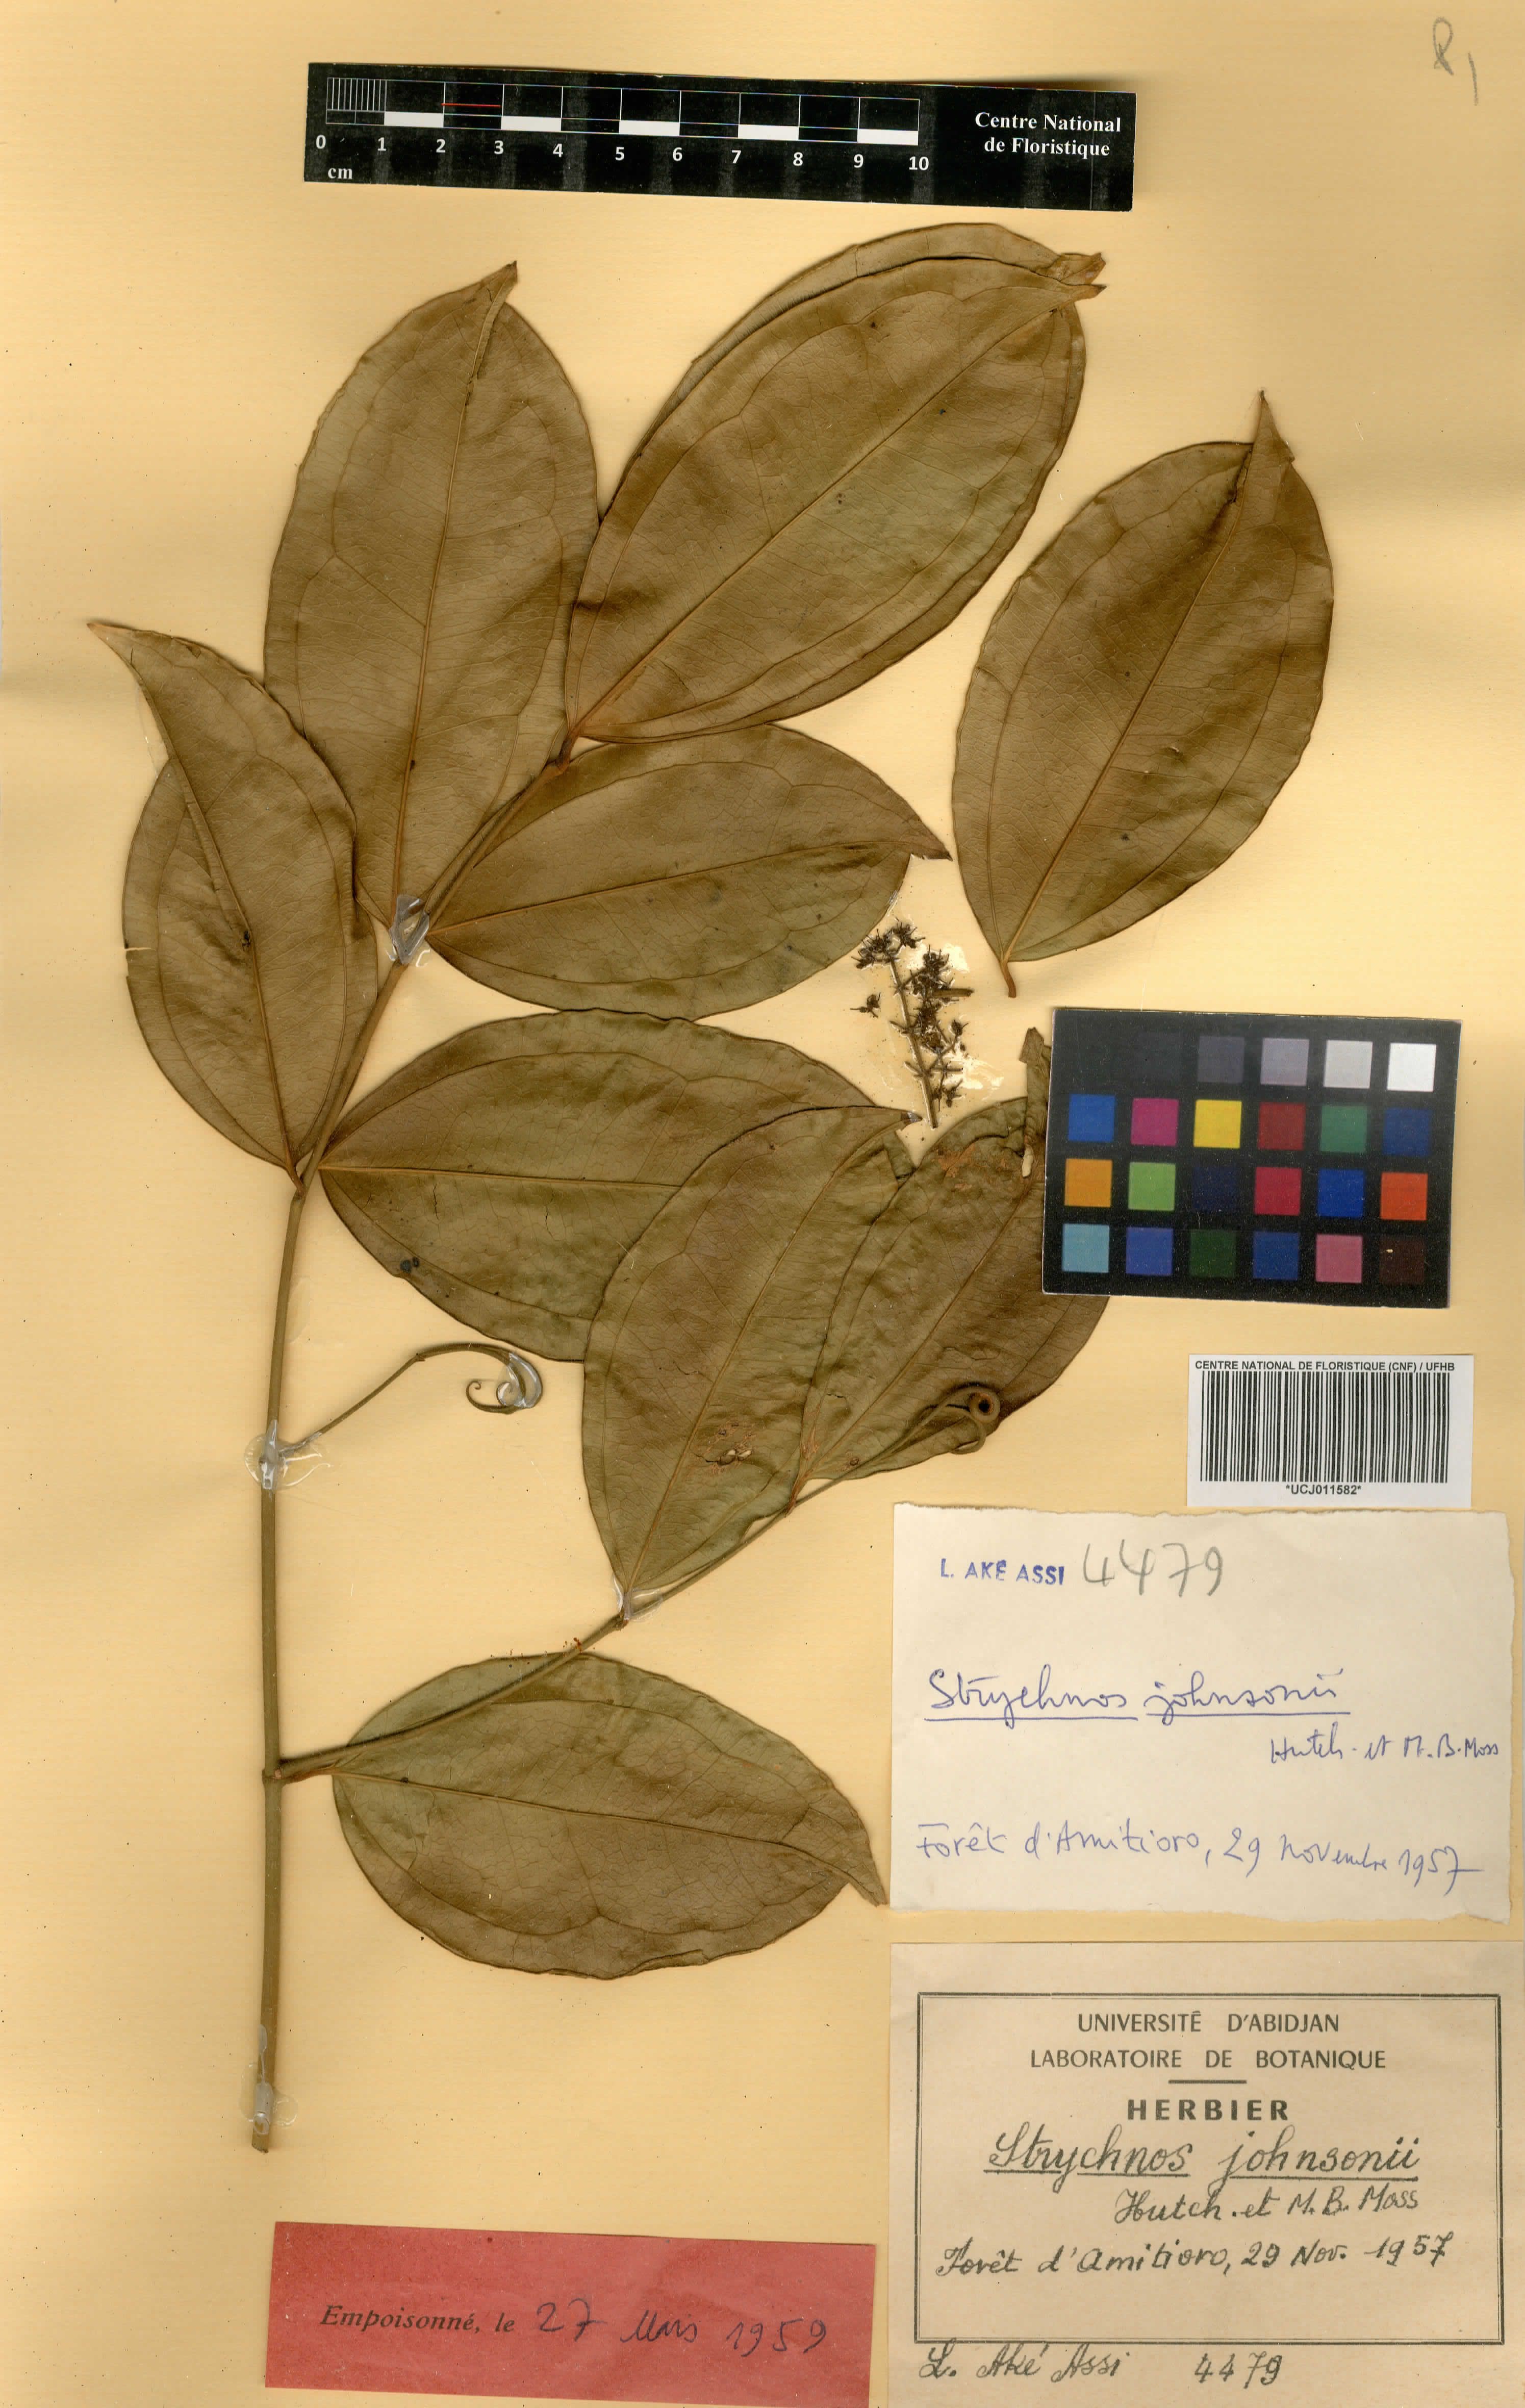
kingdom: Plantae
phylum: Tracheophyta
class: Magnoliopsida
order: Gentianales
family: Loganiaceae
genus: Strychnos
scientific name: Strychnos johnsonii
